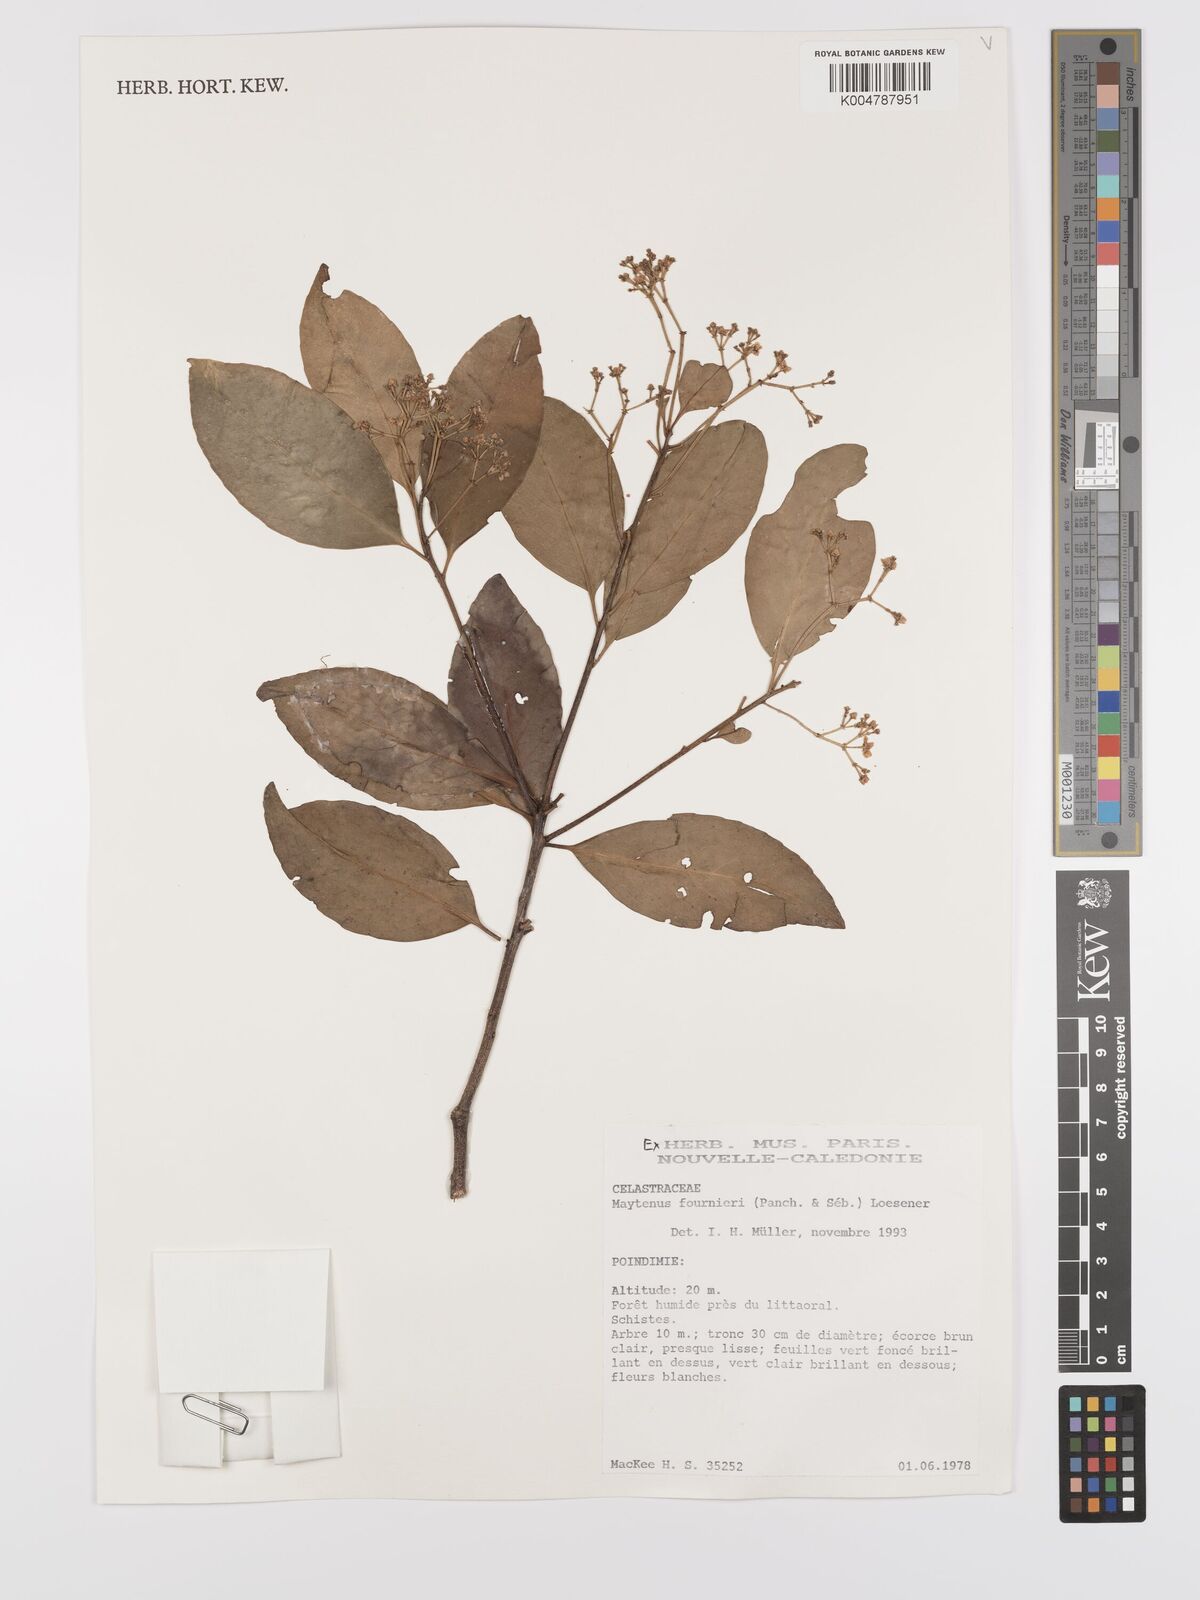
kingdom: Plantae
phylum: Tracheophyta
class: Magnoliopsida
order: Celastrales
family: Celastraceae
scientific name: Celastraceae
